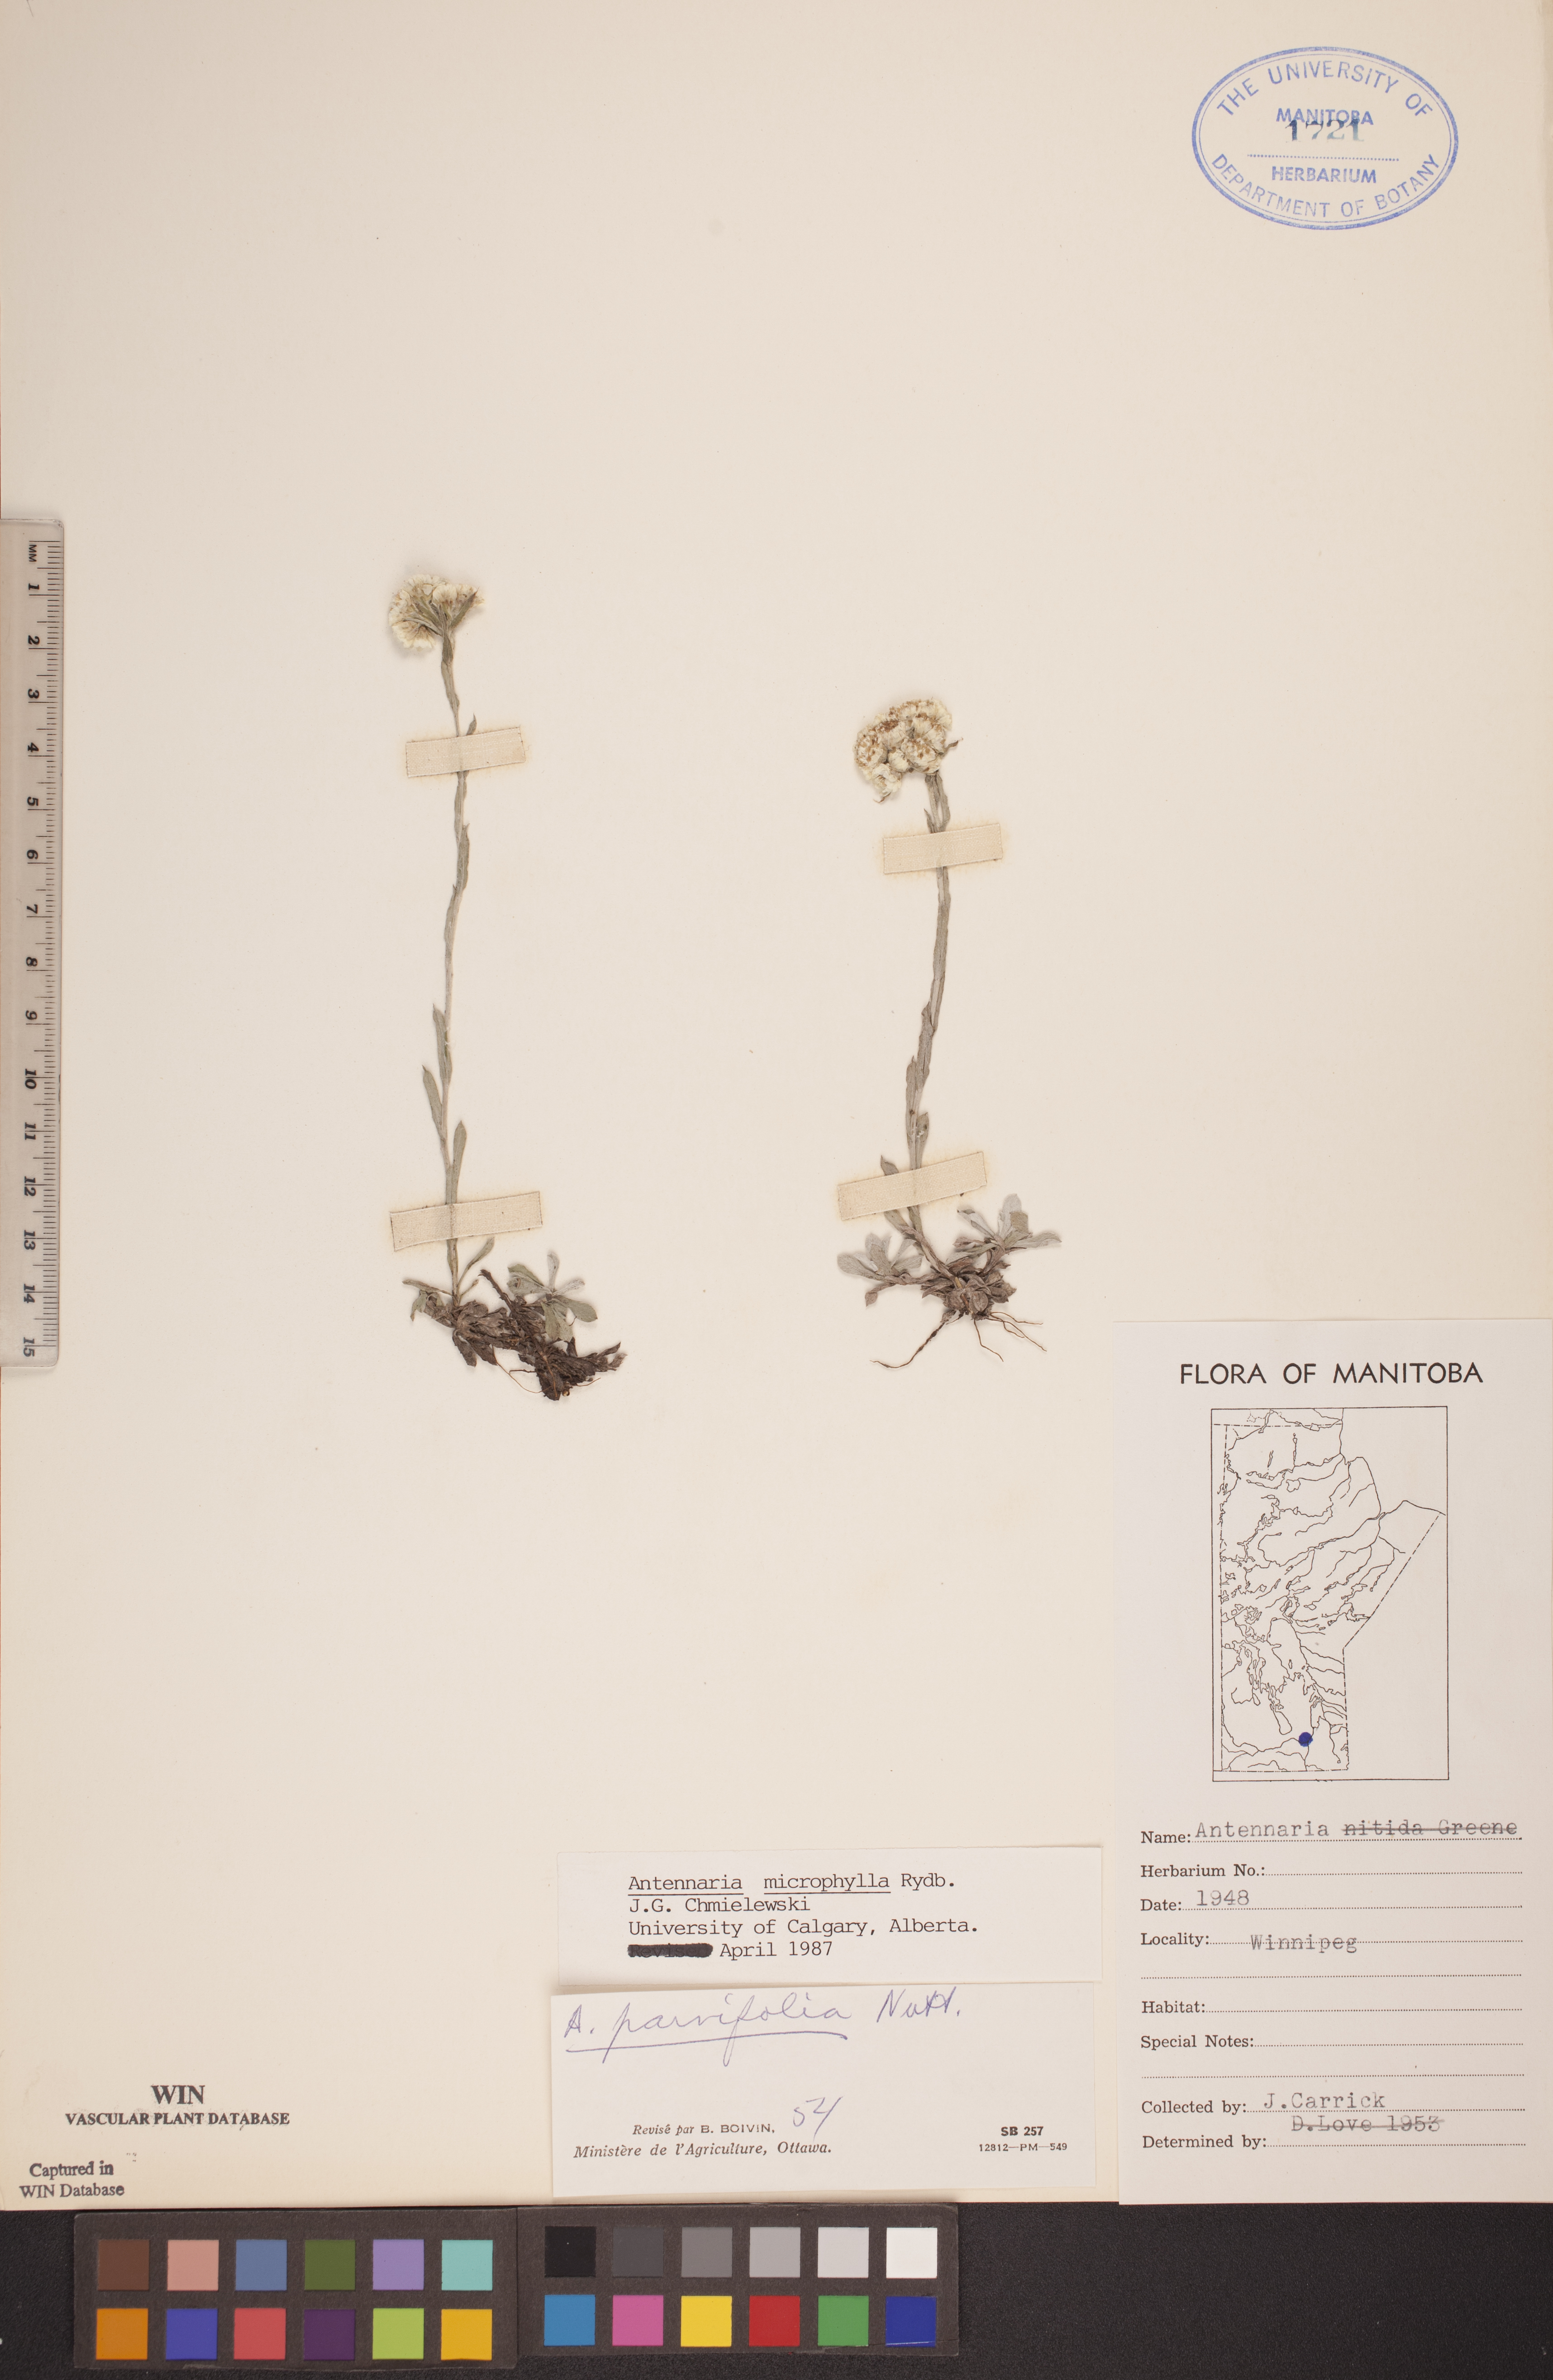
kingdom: Plantae
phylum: Tracheophyta
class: Magnoliopsida
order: Asterales
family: Asteraceae
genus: Antennaria
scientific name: Antennaria microphylla
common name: Littleleaf pussytoes
